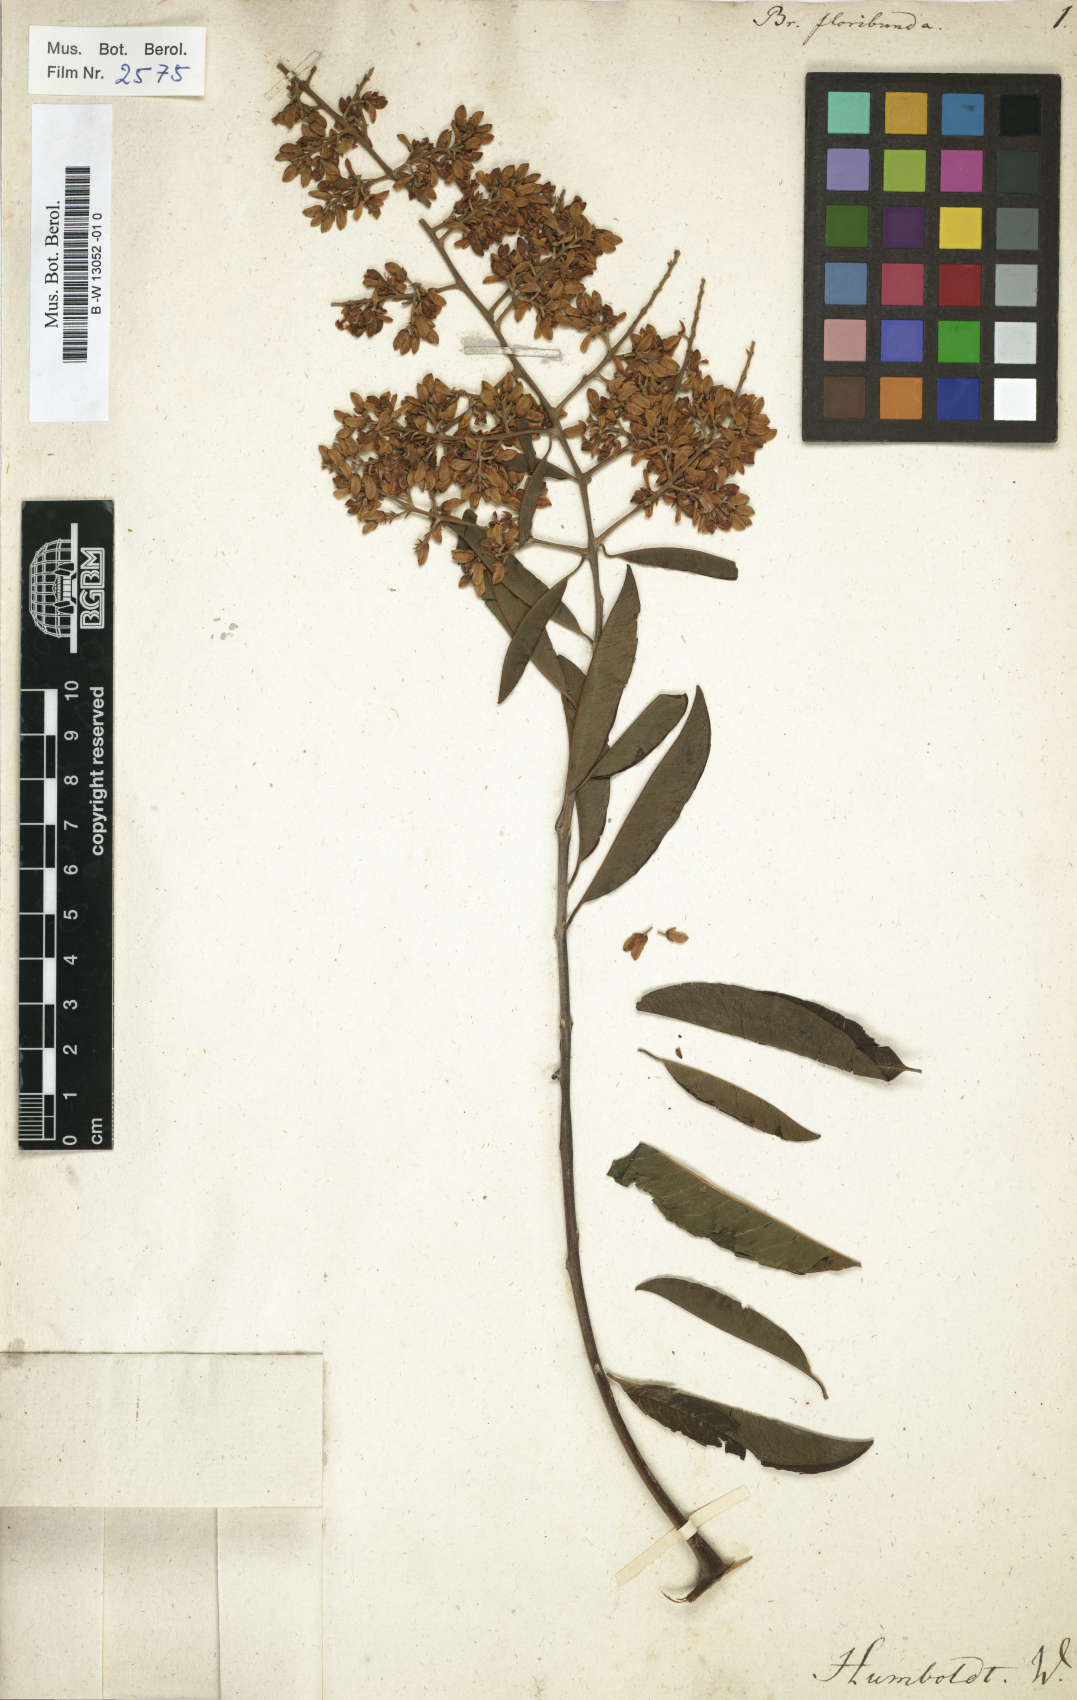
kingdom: Plantae
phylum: Tracheophyta
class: Magnoliopsida
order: Fabales
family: Polygalaceae
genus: Bredemeyera
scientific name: Bredemeyera floribunda
